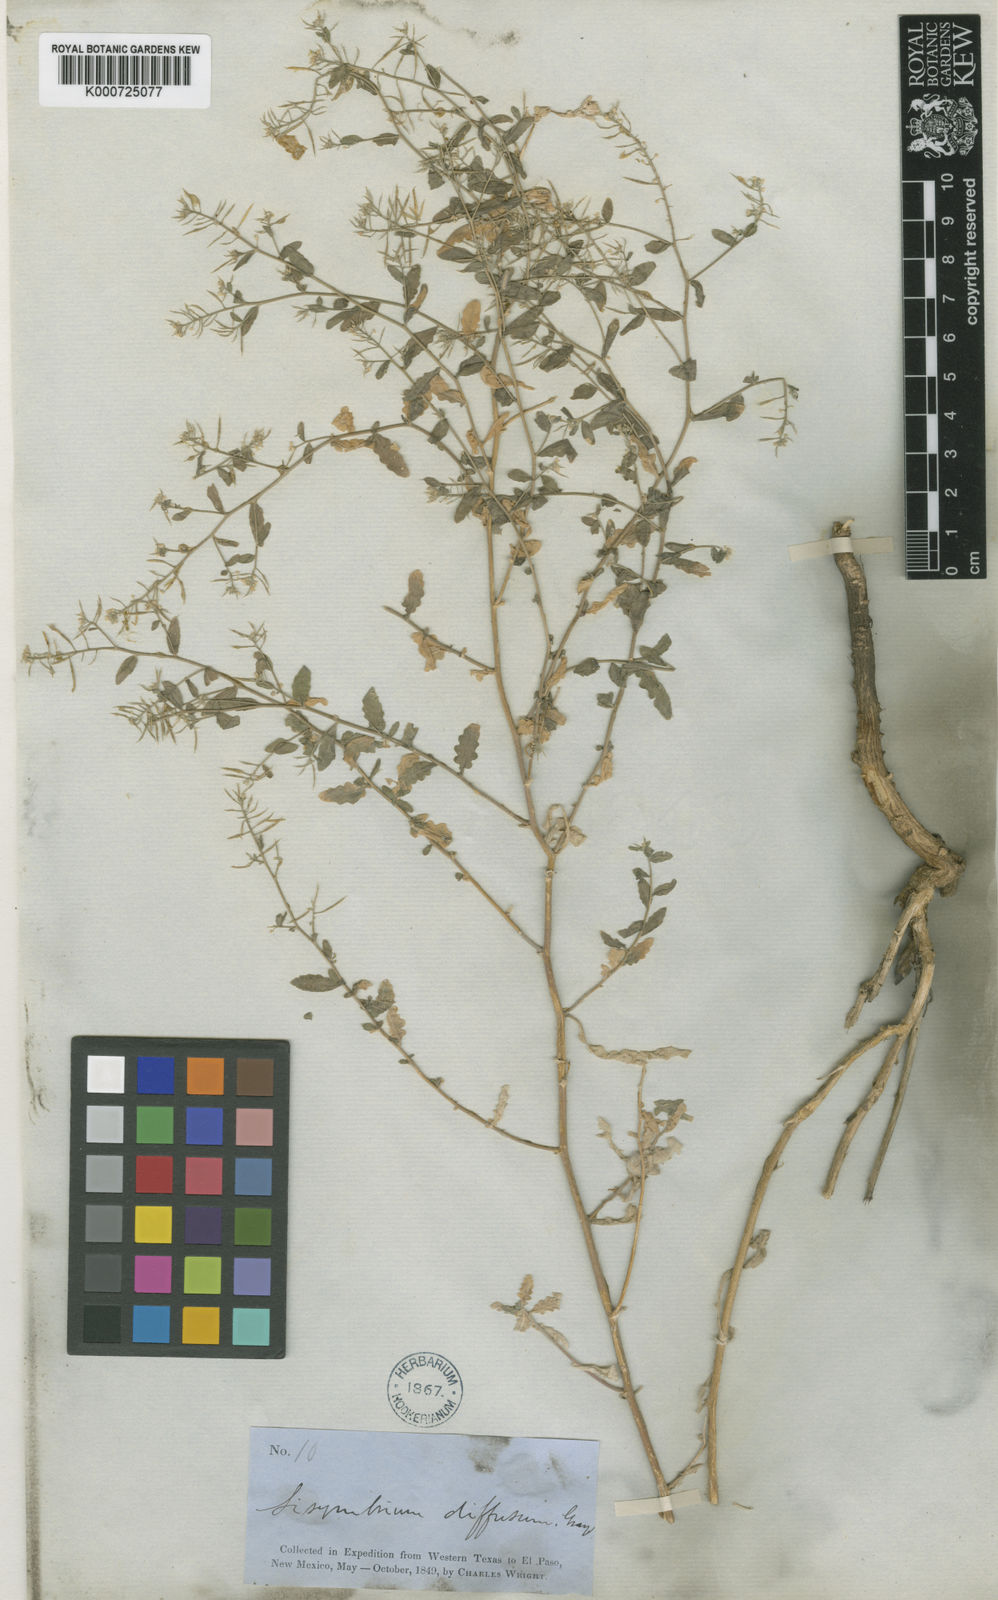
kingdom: Plantae
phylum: Tracheophyta
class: Magnoliopsida
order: Brassicales
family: Brassicaceae
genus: Halimolobos
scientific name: Halimolobos diffusus
